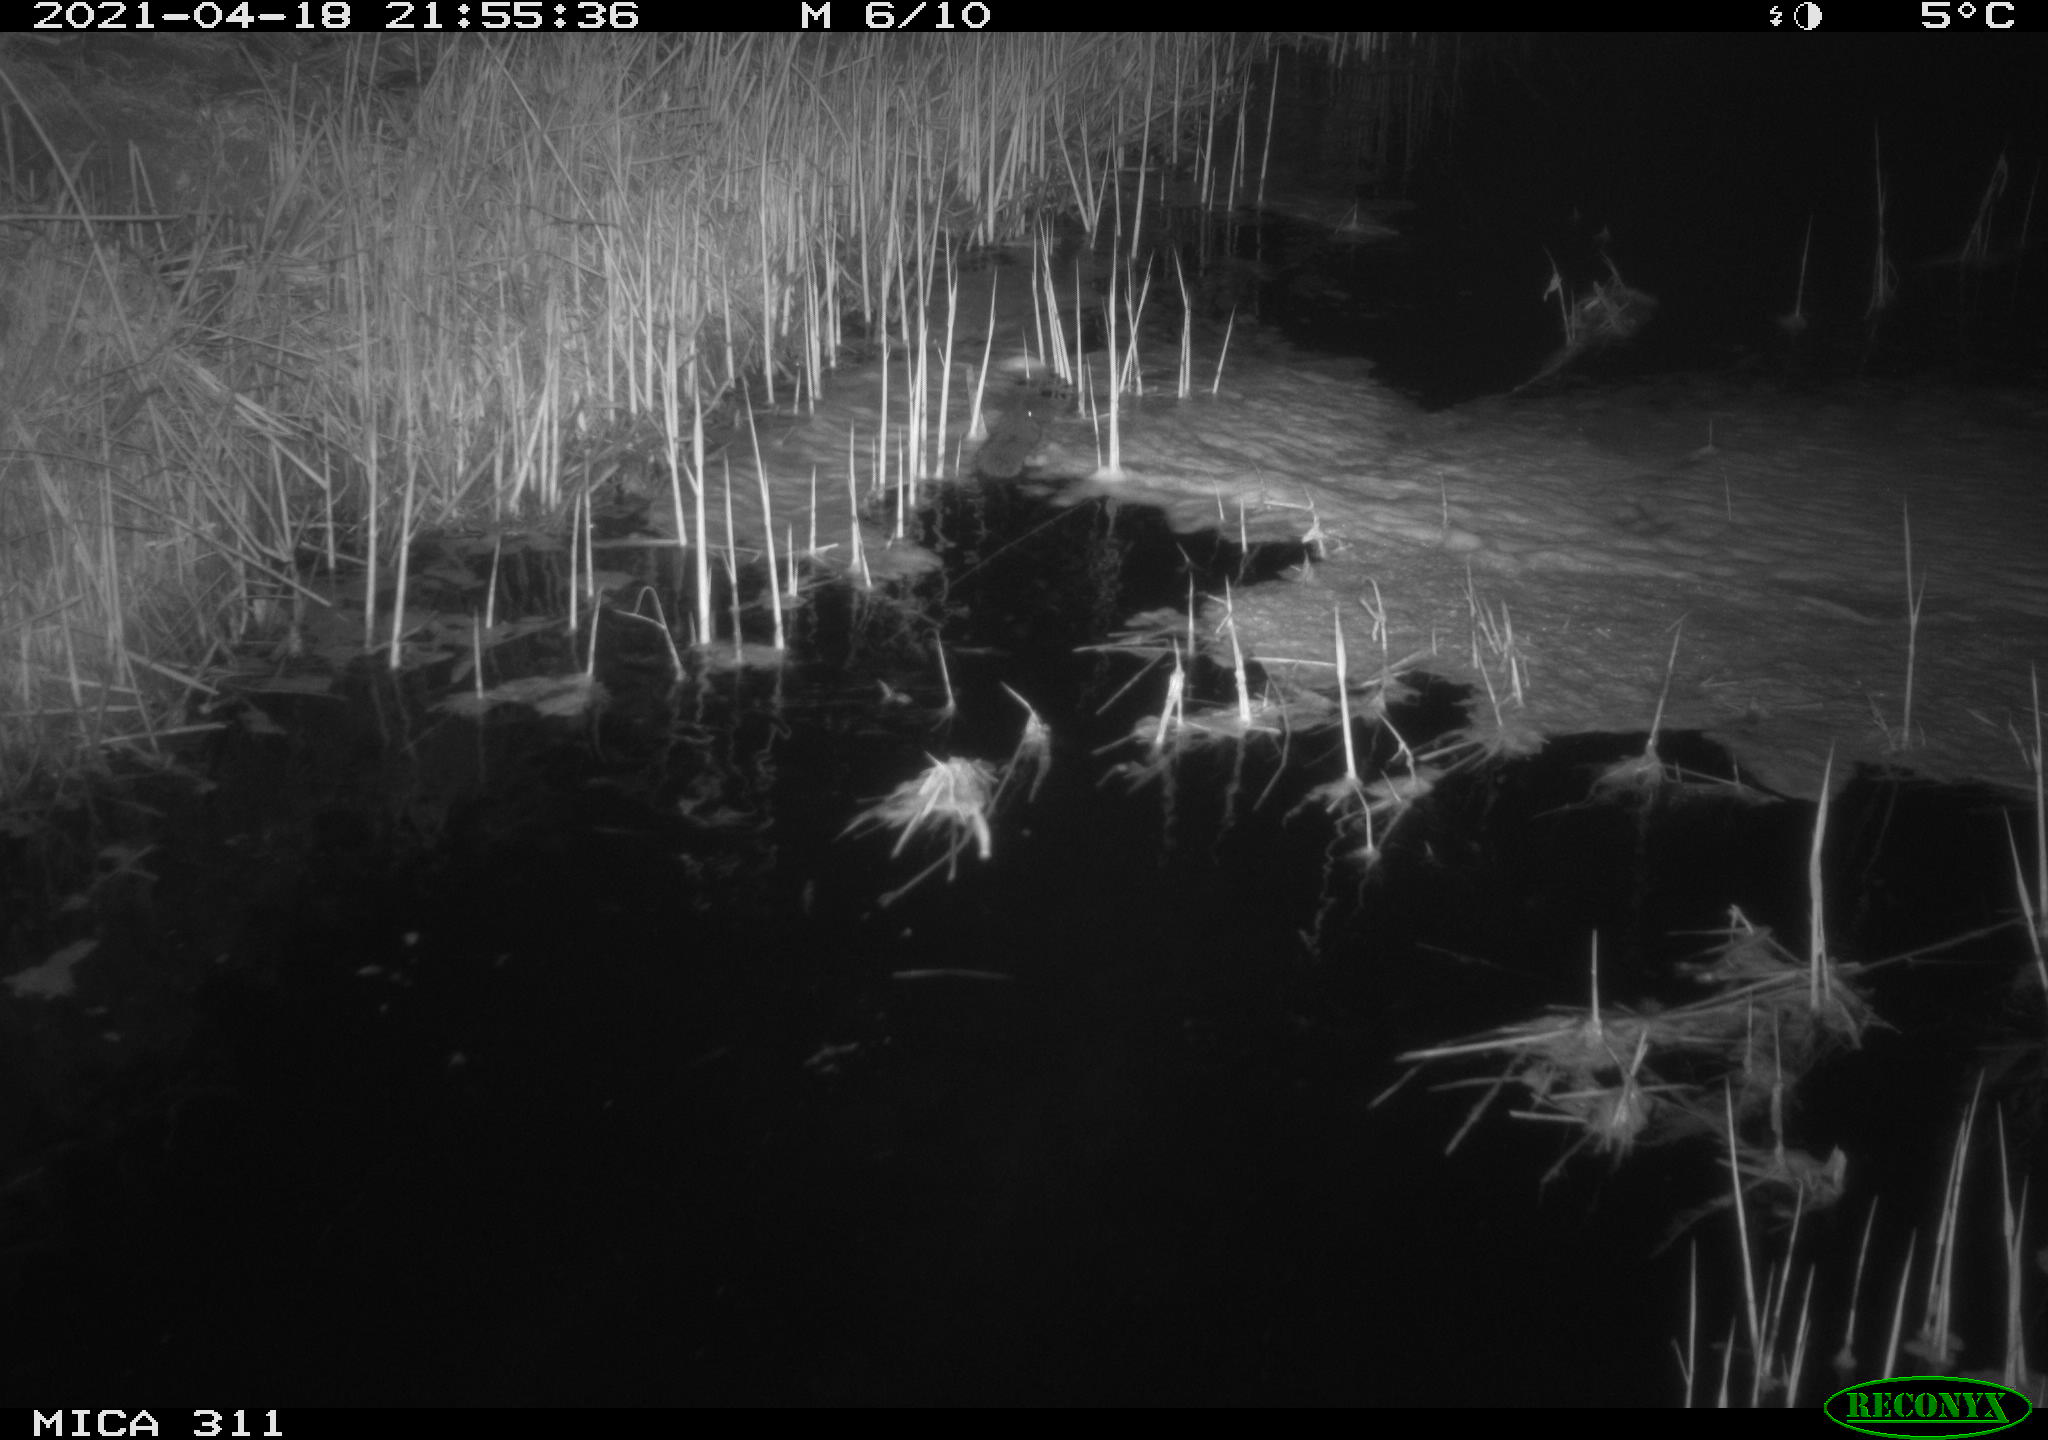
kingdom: Animalia
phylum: Chordata
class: Mammalia
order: Rodentia
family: Muridae
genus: Rattus
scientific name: Rattus norvegicus
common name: Brown rat
